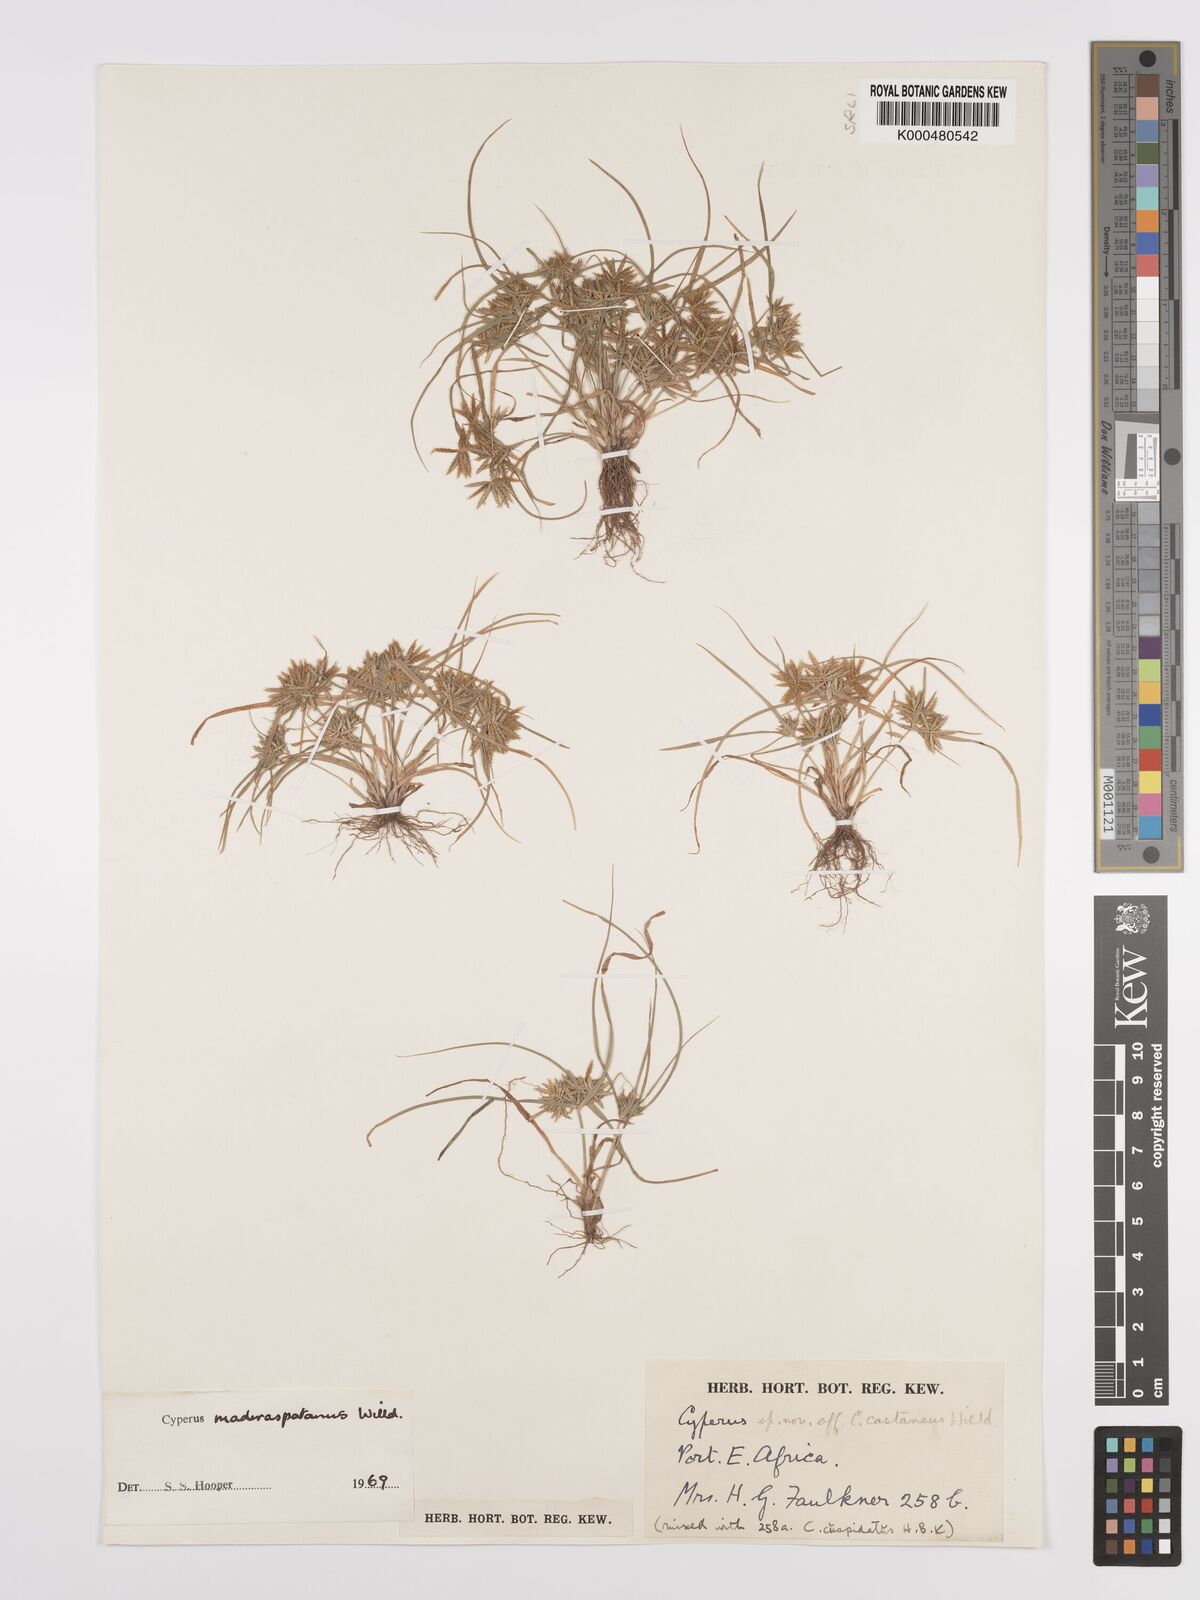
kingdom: Plantae
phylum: Tracheophyta
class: Liliopsida
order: Poales
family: Cyperaceae
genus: Cyperus
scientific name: Cyperus maderaspatanus
